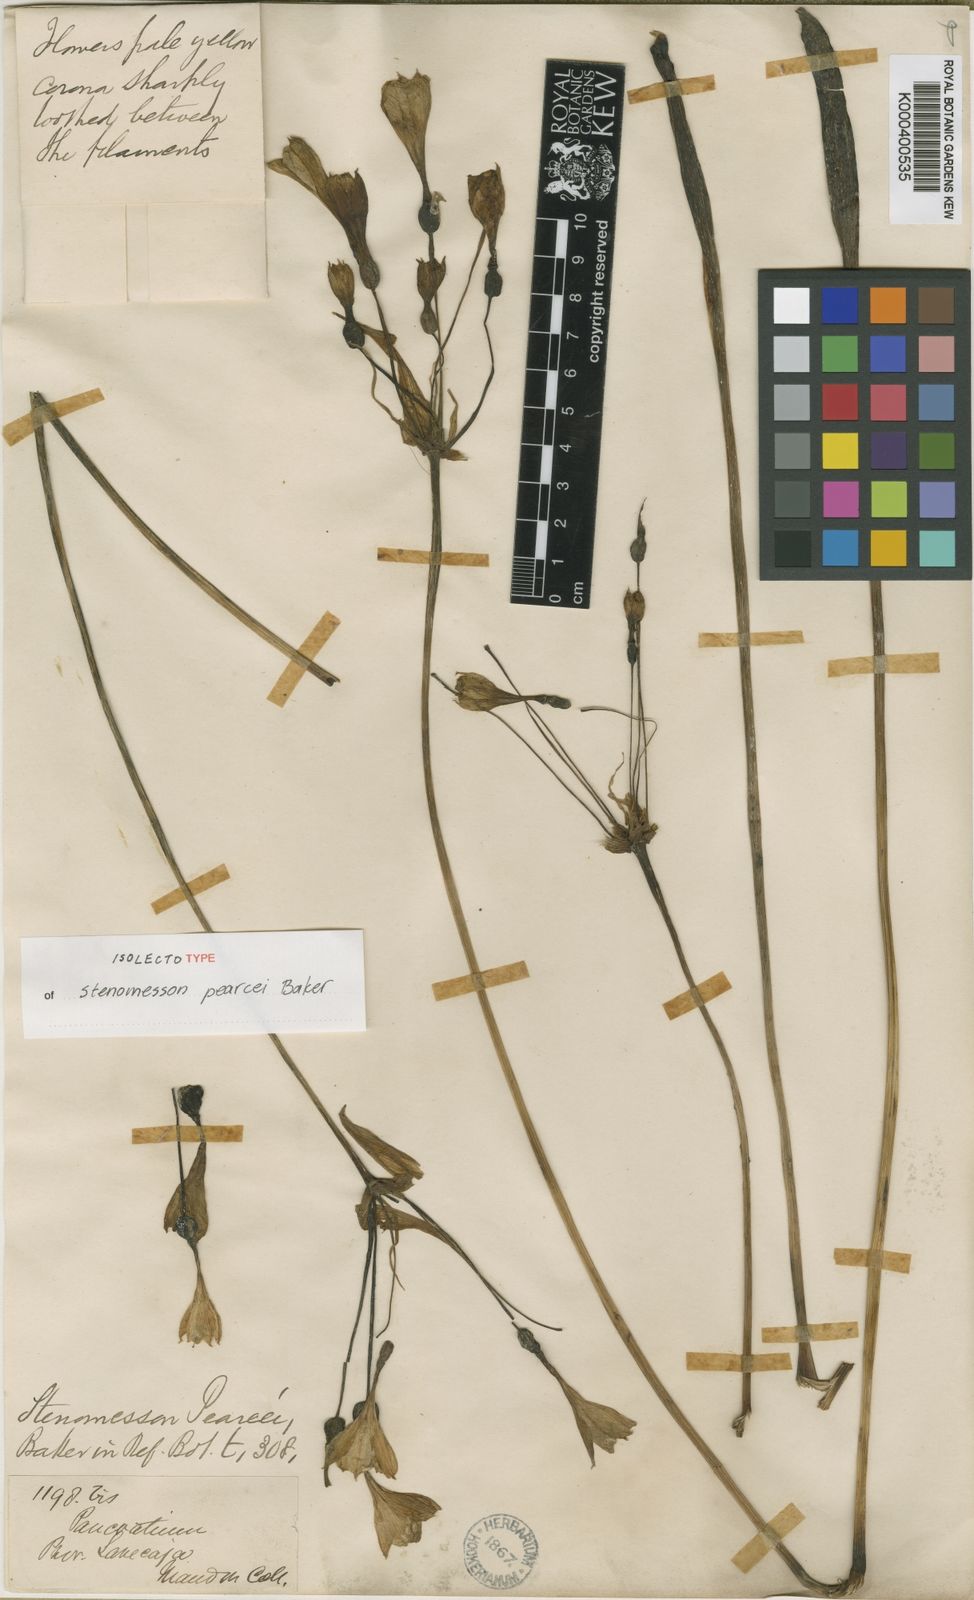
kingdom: Plantae
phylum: Tracheophyta
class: Liliopsida
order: Asparagales
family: Amaryllidaceae
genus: Stenomesson
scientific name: Stenomesson pearcei
